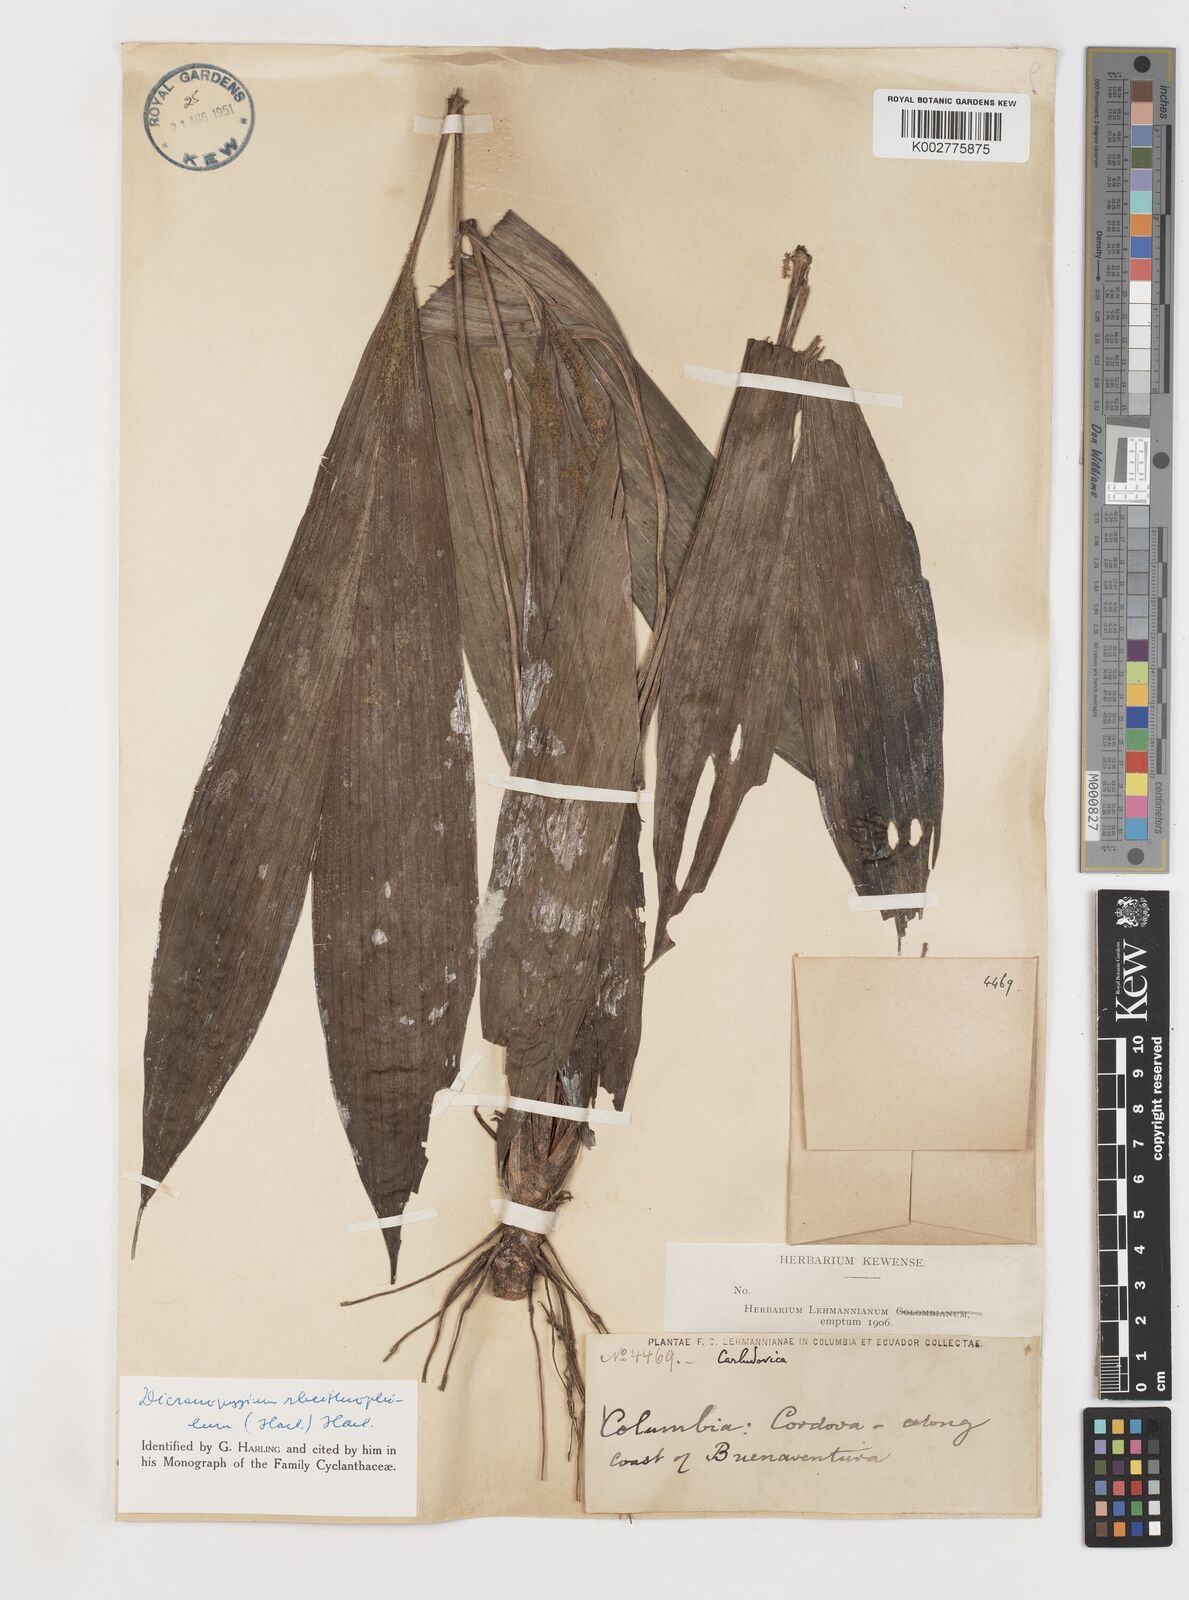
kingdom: Plantae
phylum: Tracheophyta
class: Liliopsida
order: Pandanales
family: Cyclanthaceae
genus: Dicranopygium
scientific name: Dicranopygium rheithrophilum
